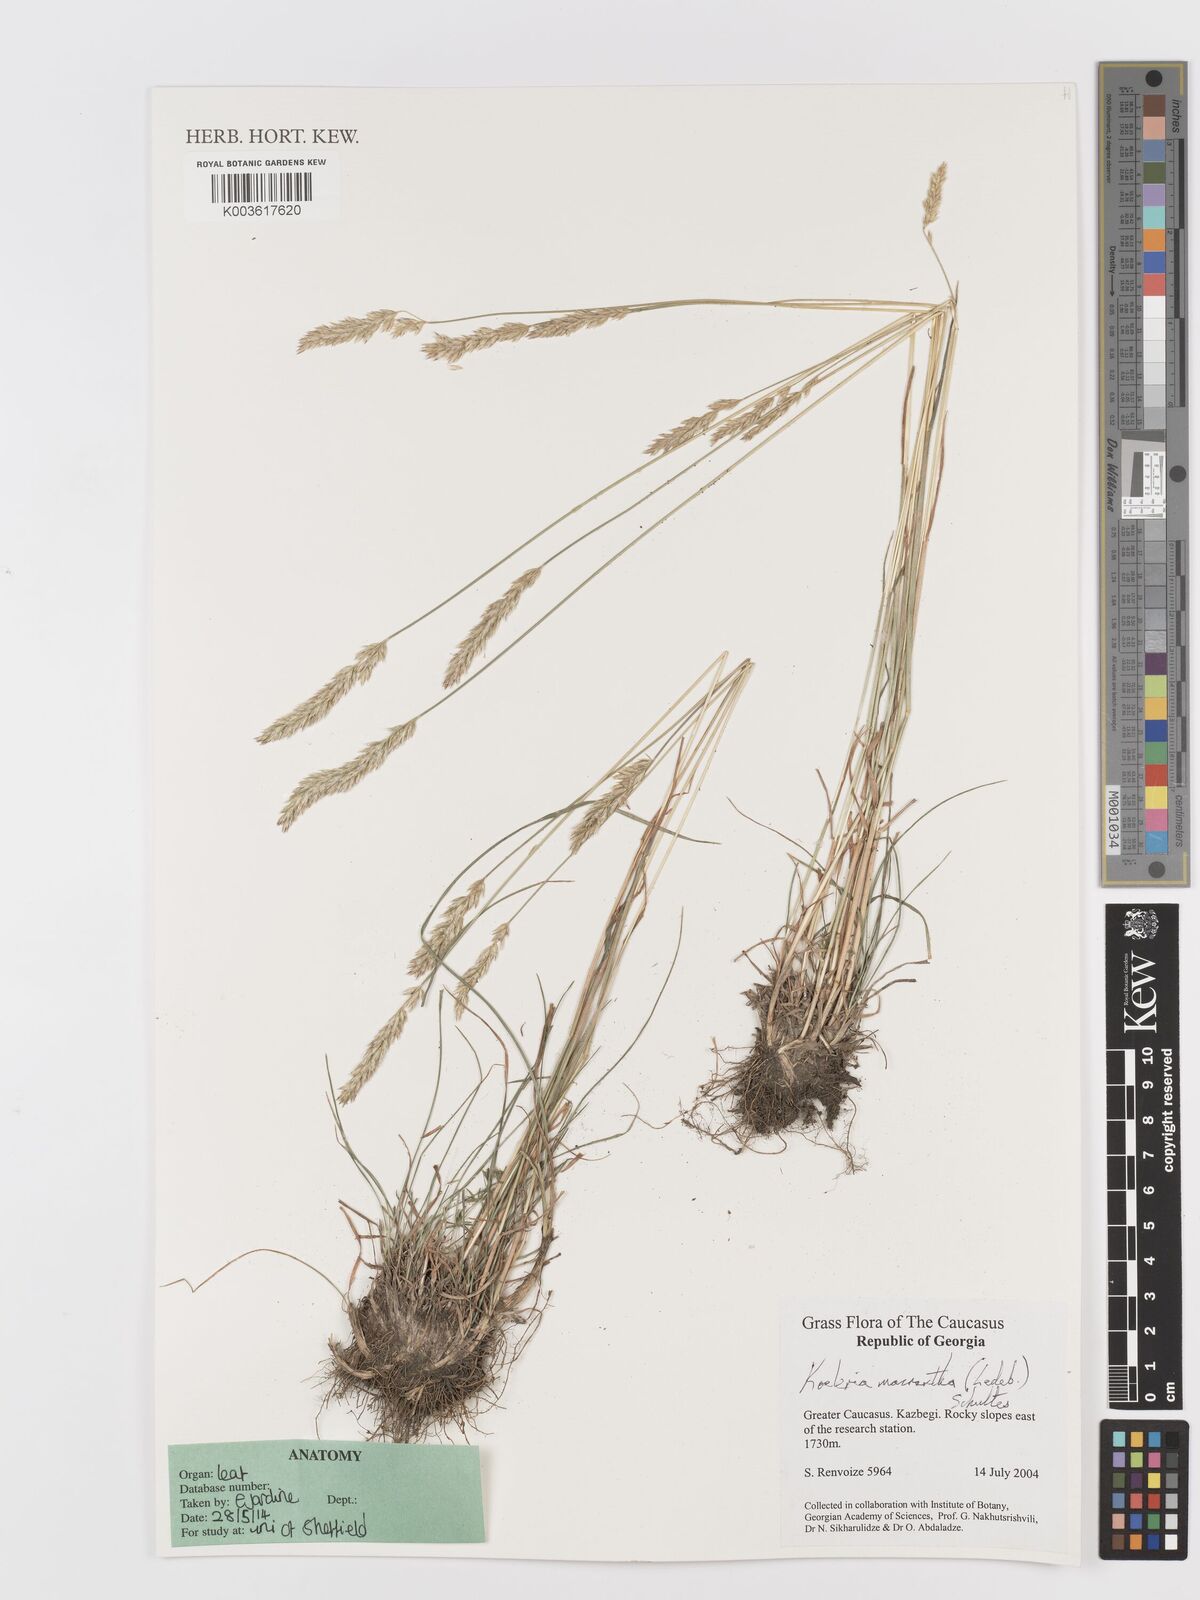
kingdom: Plantae
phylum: Tracheophyta
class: Liliopsida
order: Poales
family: Poaceae
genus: Koeleria
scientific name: Koeleria macrantha
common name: Crested hair-grass
